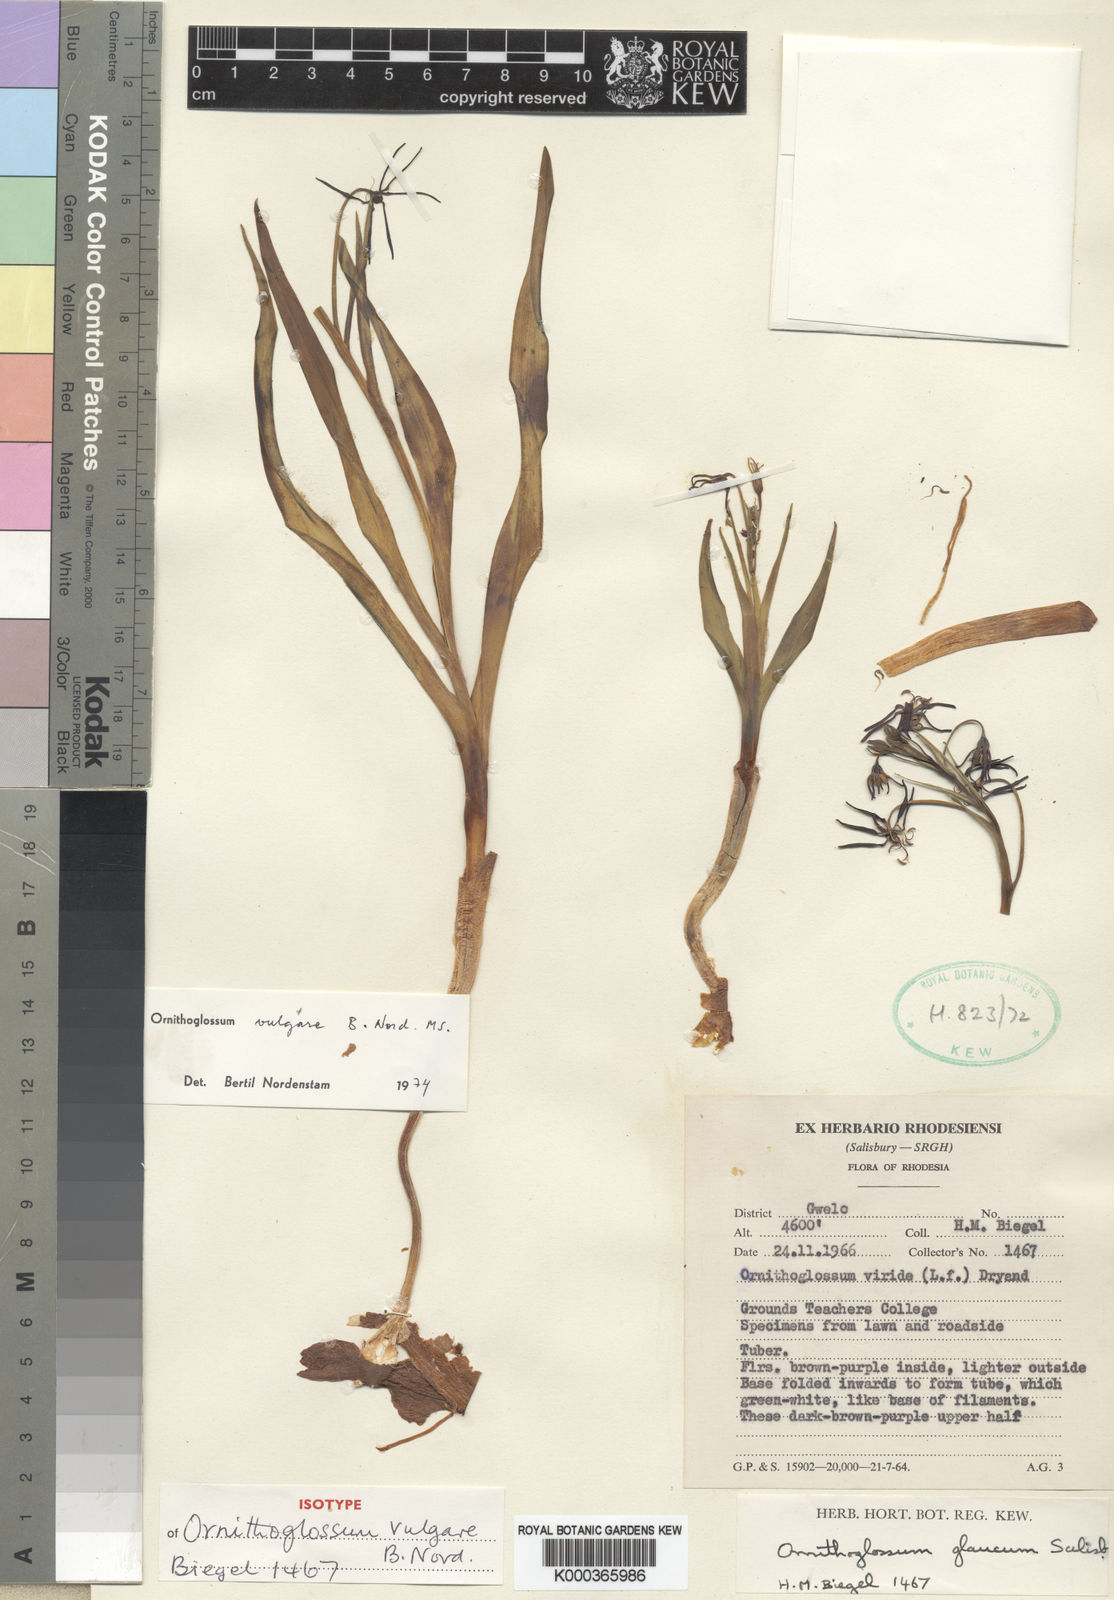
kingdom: Plantae
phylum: Tracheophyta
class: Liliopsida
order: Liliales
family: Colchicaceae
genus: Ornithoglossum
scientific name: Ornithoglossum vulgare
